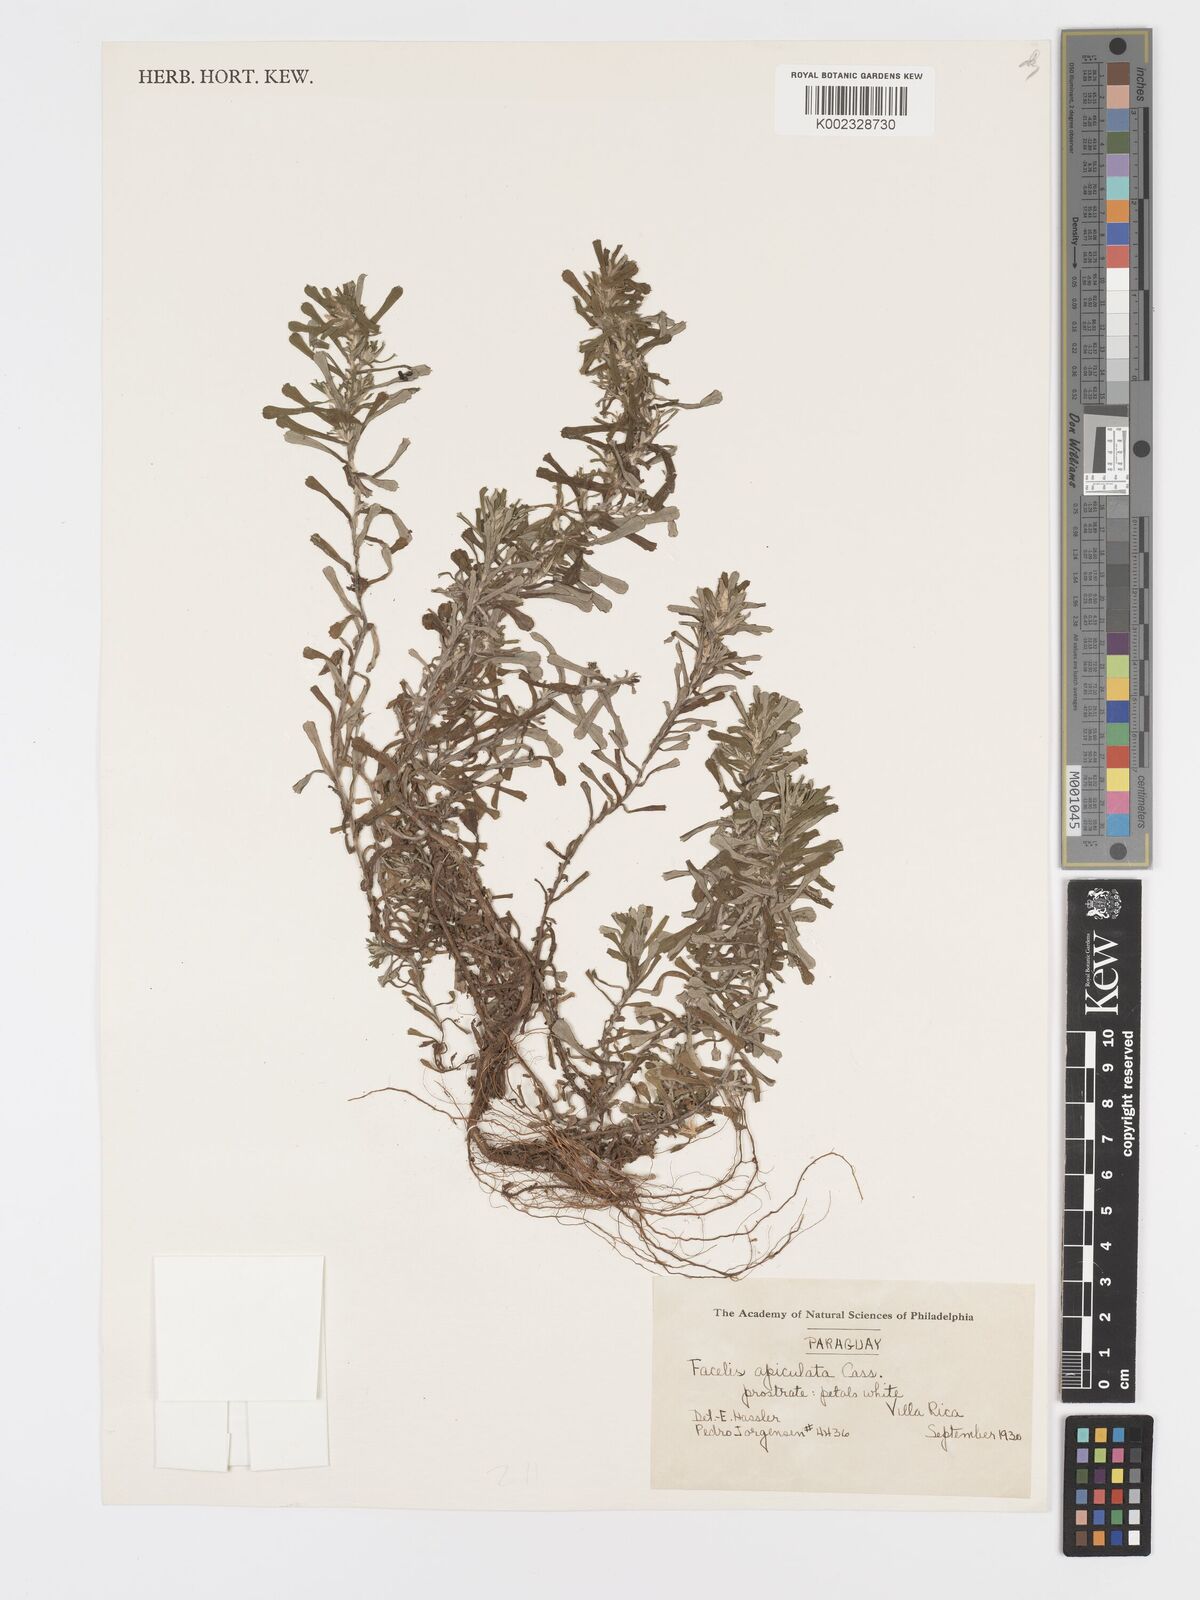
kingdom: Plantae
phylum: Tracheophyta
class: Magnoliopsida
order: Asterales
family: Asteraceae
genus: Facelis
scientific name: Facelis retusa
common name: Annual trampweed
